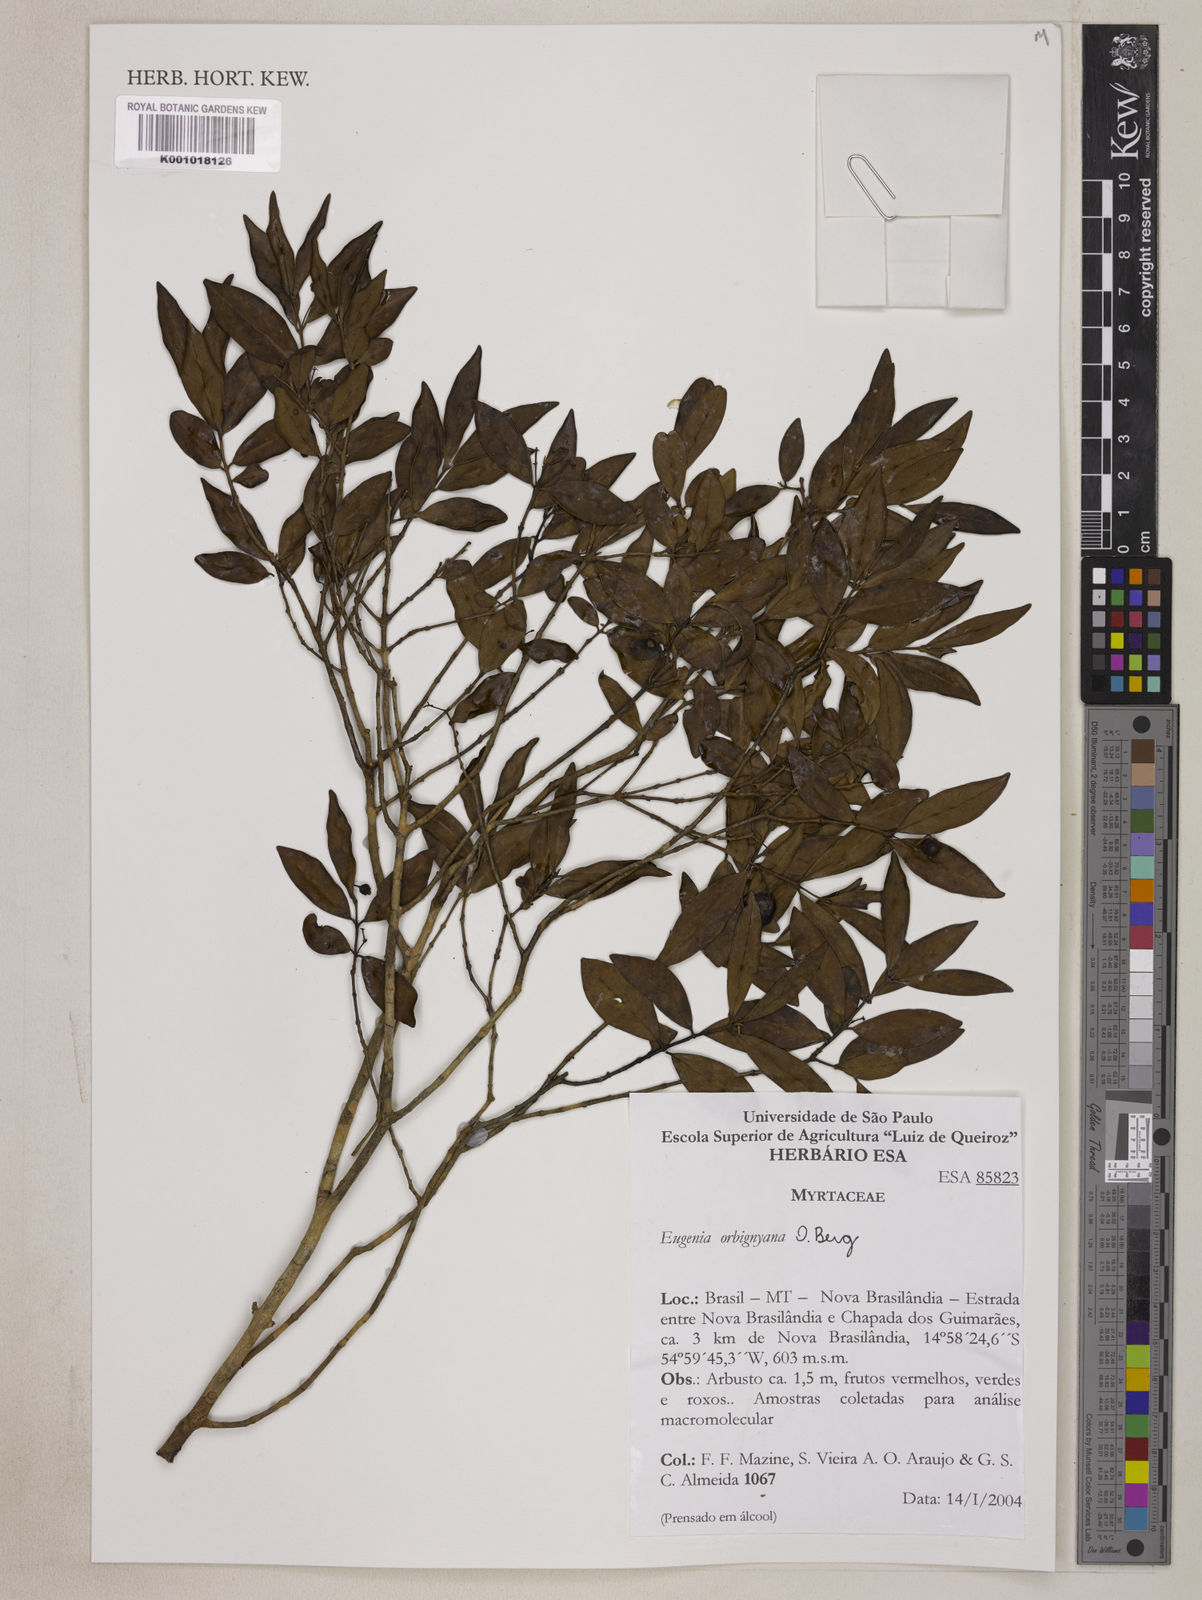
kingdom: Plantae
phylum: Tracheophyta
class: Magnoliopsida
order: Myrtales
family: Myrtaceae
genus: Eugenia
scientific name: Eugenia orbignyana
